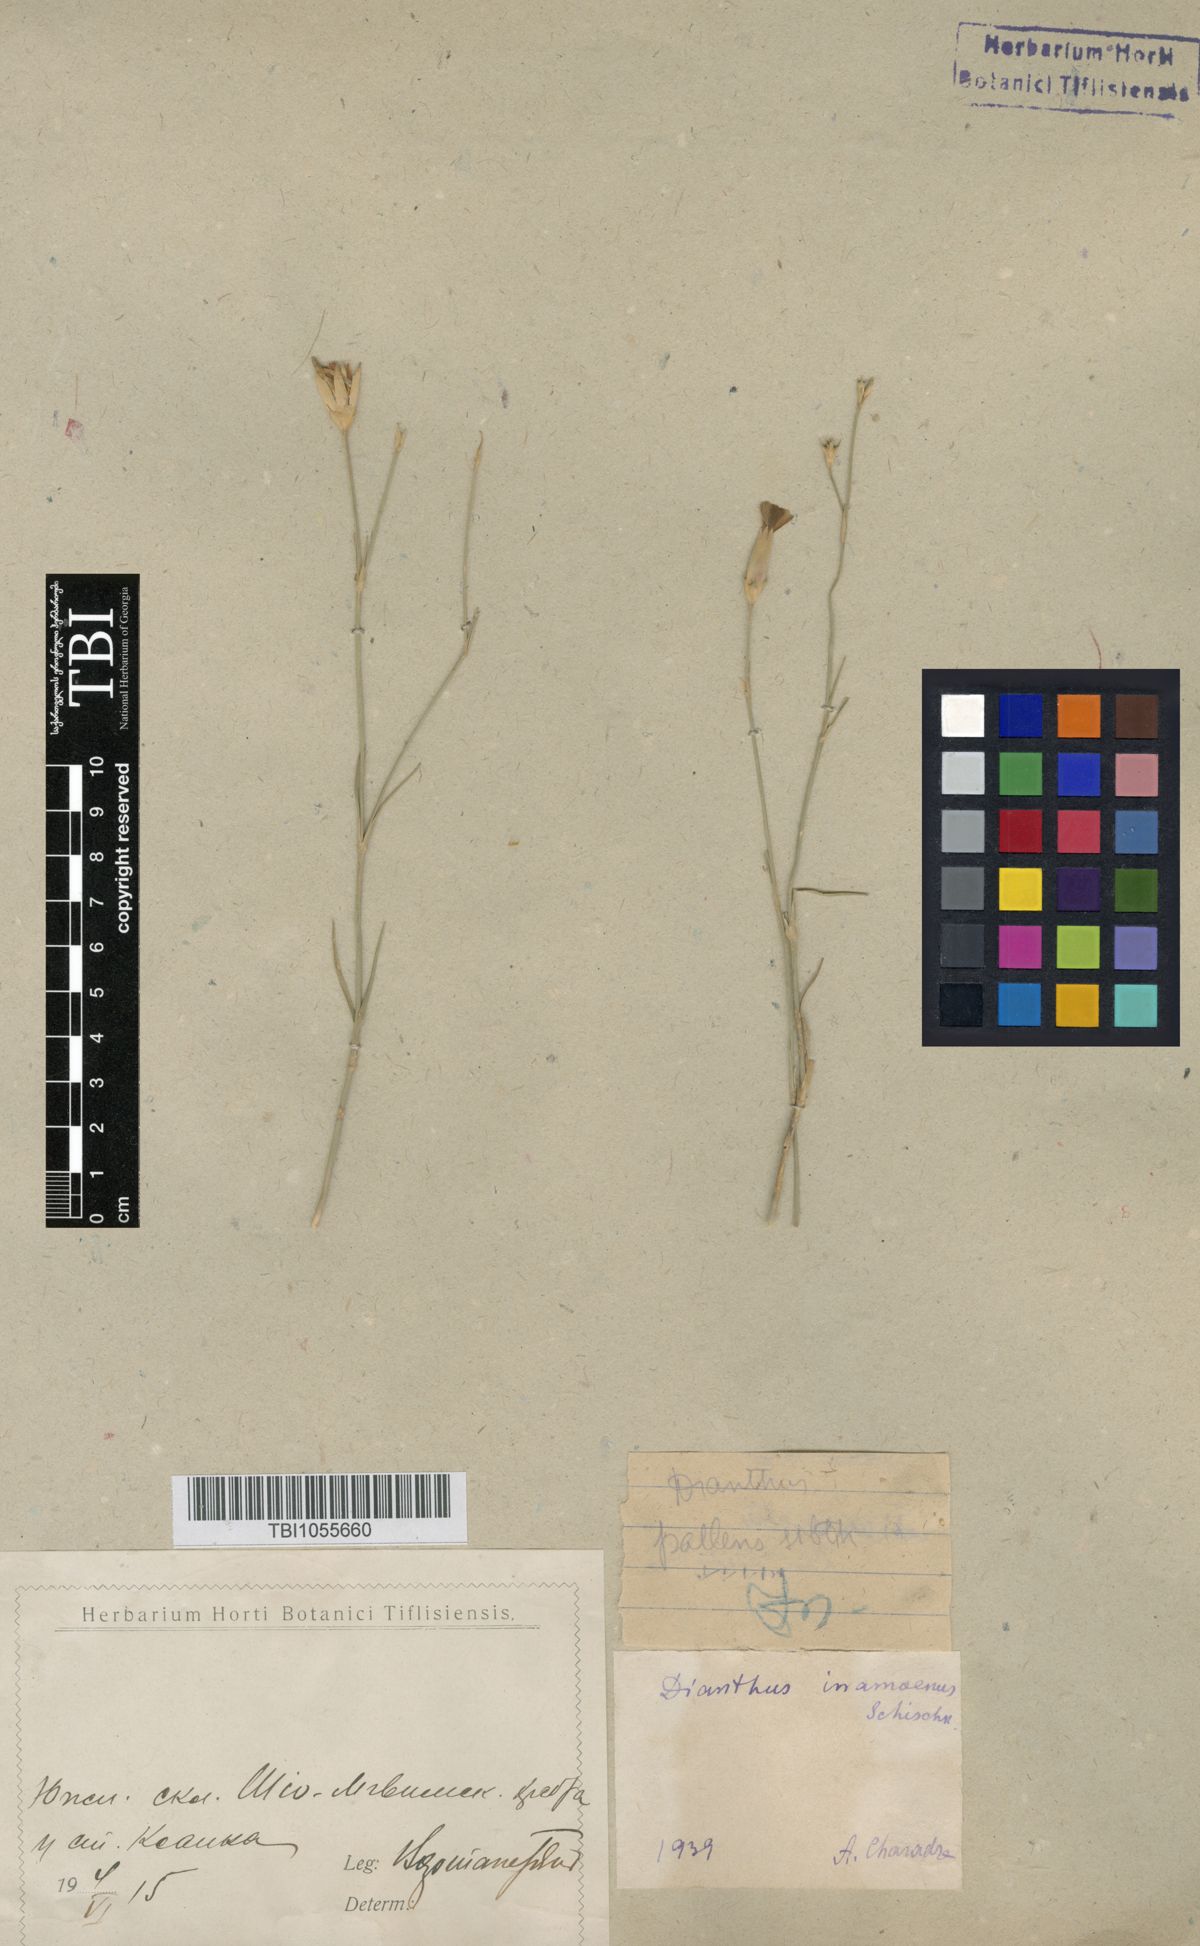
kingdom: Plantae
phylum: Tracheophyta
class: Magnoliopsida
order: Caryophyllales
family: Caryophyllaceae
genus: Dianthus
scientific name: Dianthus inamoenus
